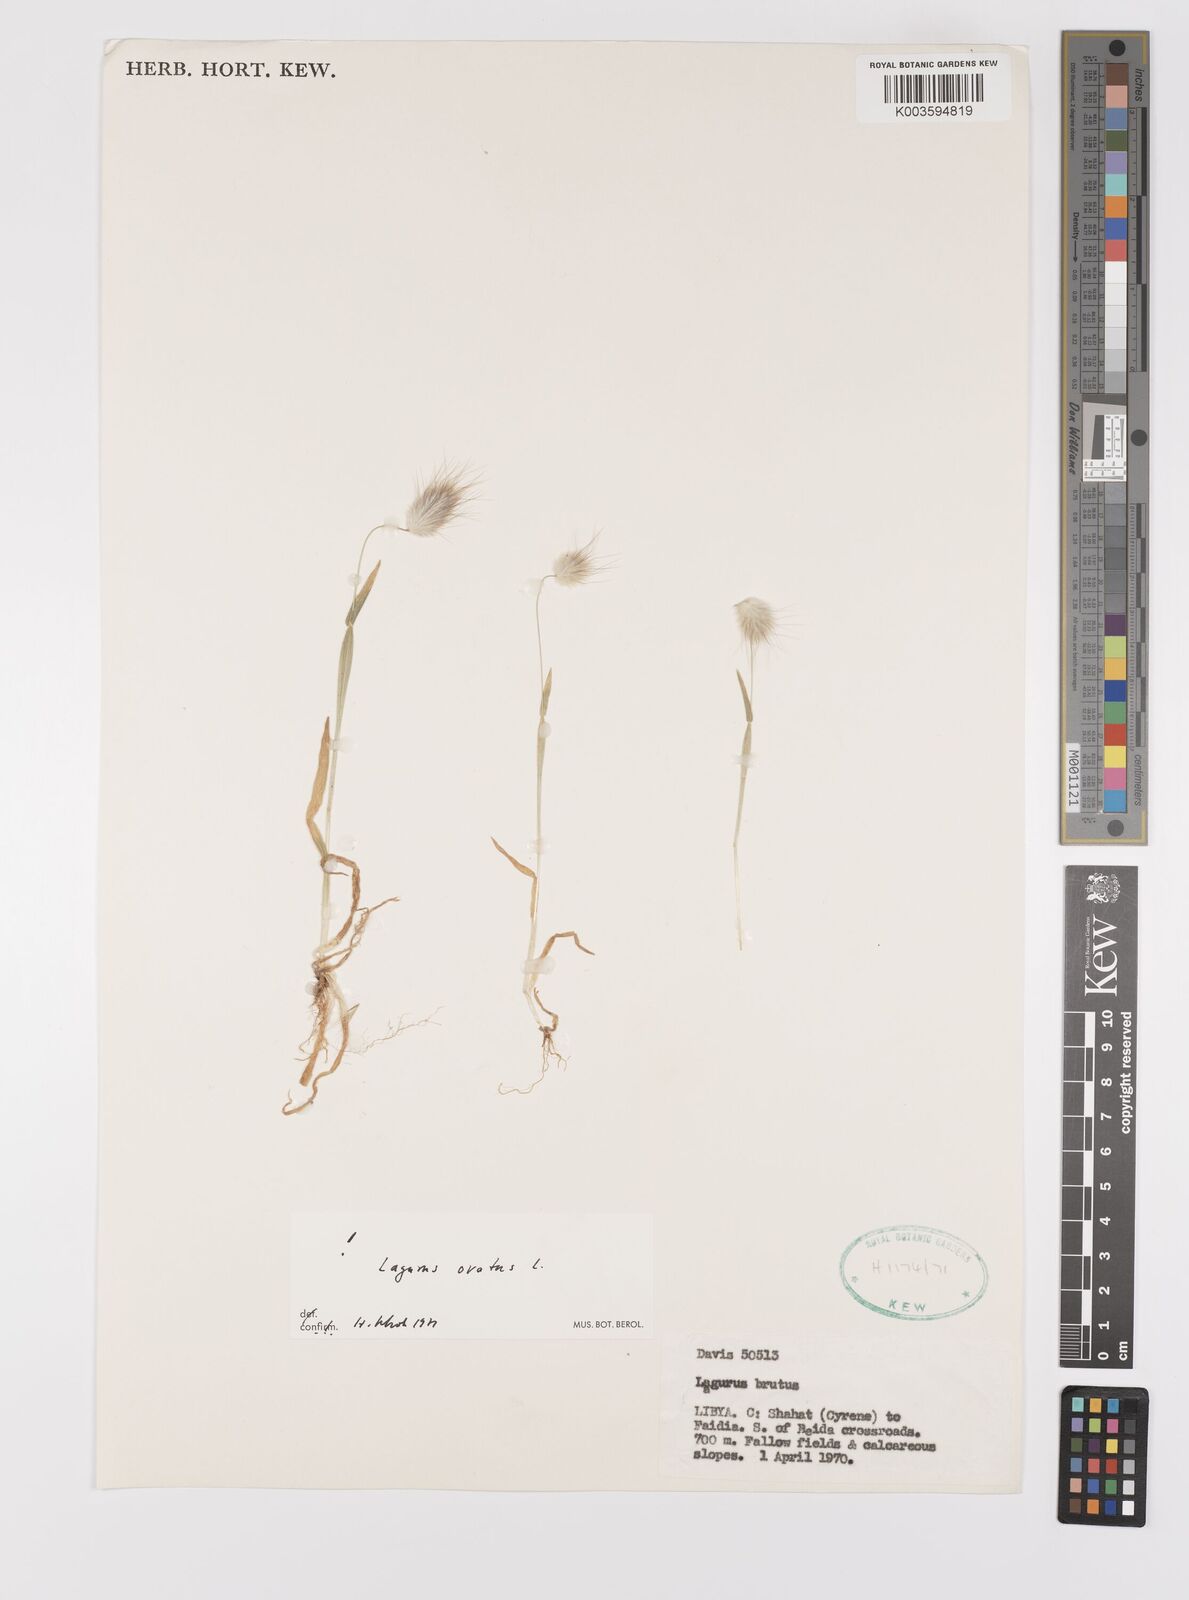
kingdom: Plantae
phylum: Tracheophyta
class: Liliopsida
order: Poales
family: Poaceae
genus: Lagurus
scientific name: Lagurus ovatus
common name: Hare's-tail
